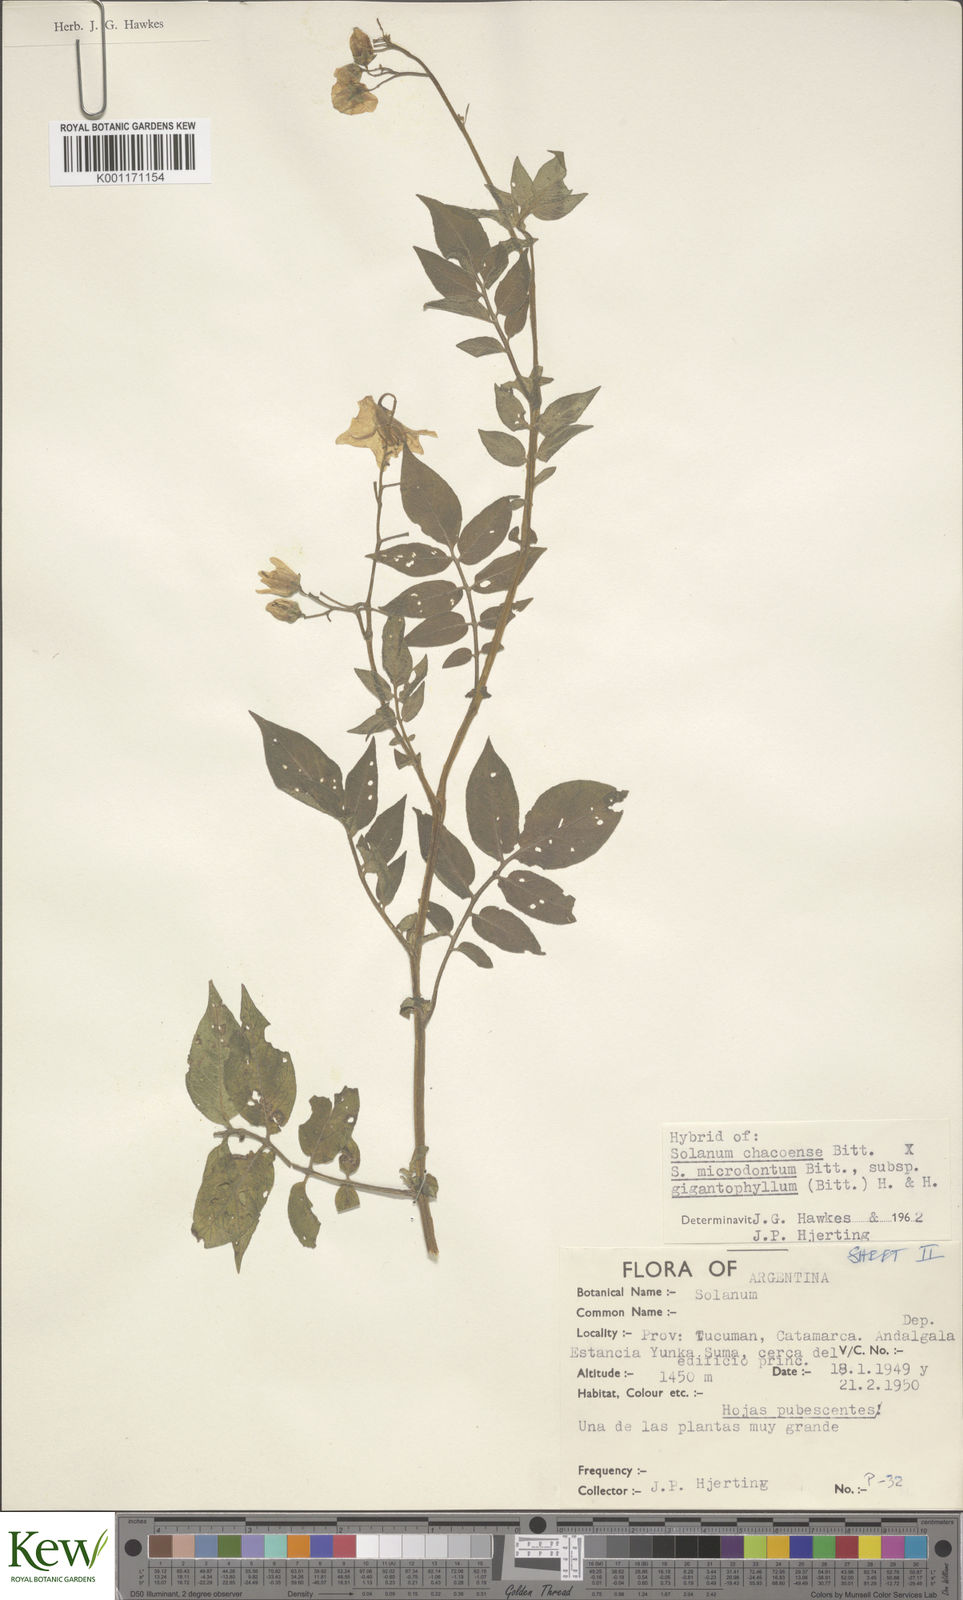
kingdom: Plantae
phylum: Tracheophyta
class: Magnoliopsida
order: Solanales
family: Solanaceae
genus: Solanum
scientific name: Solanum microdontum
